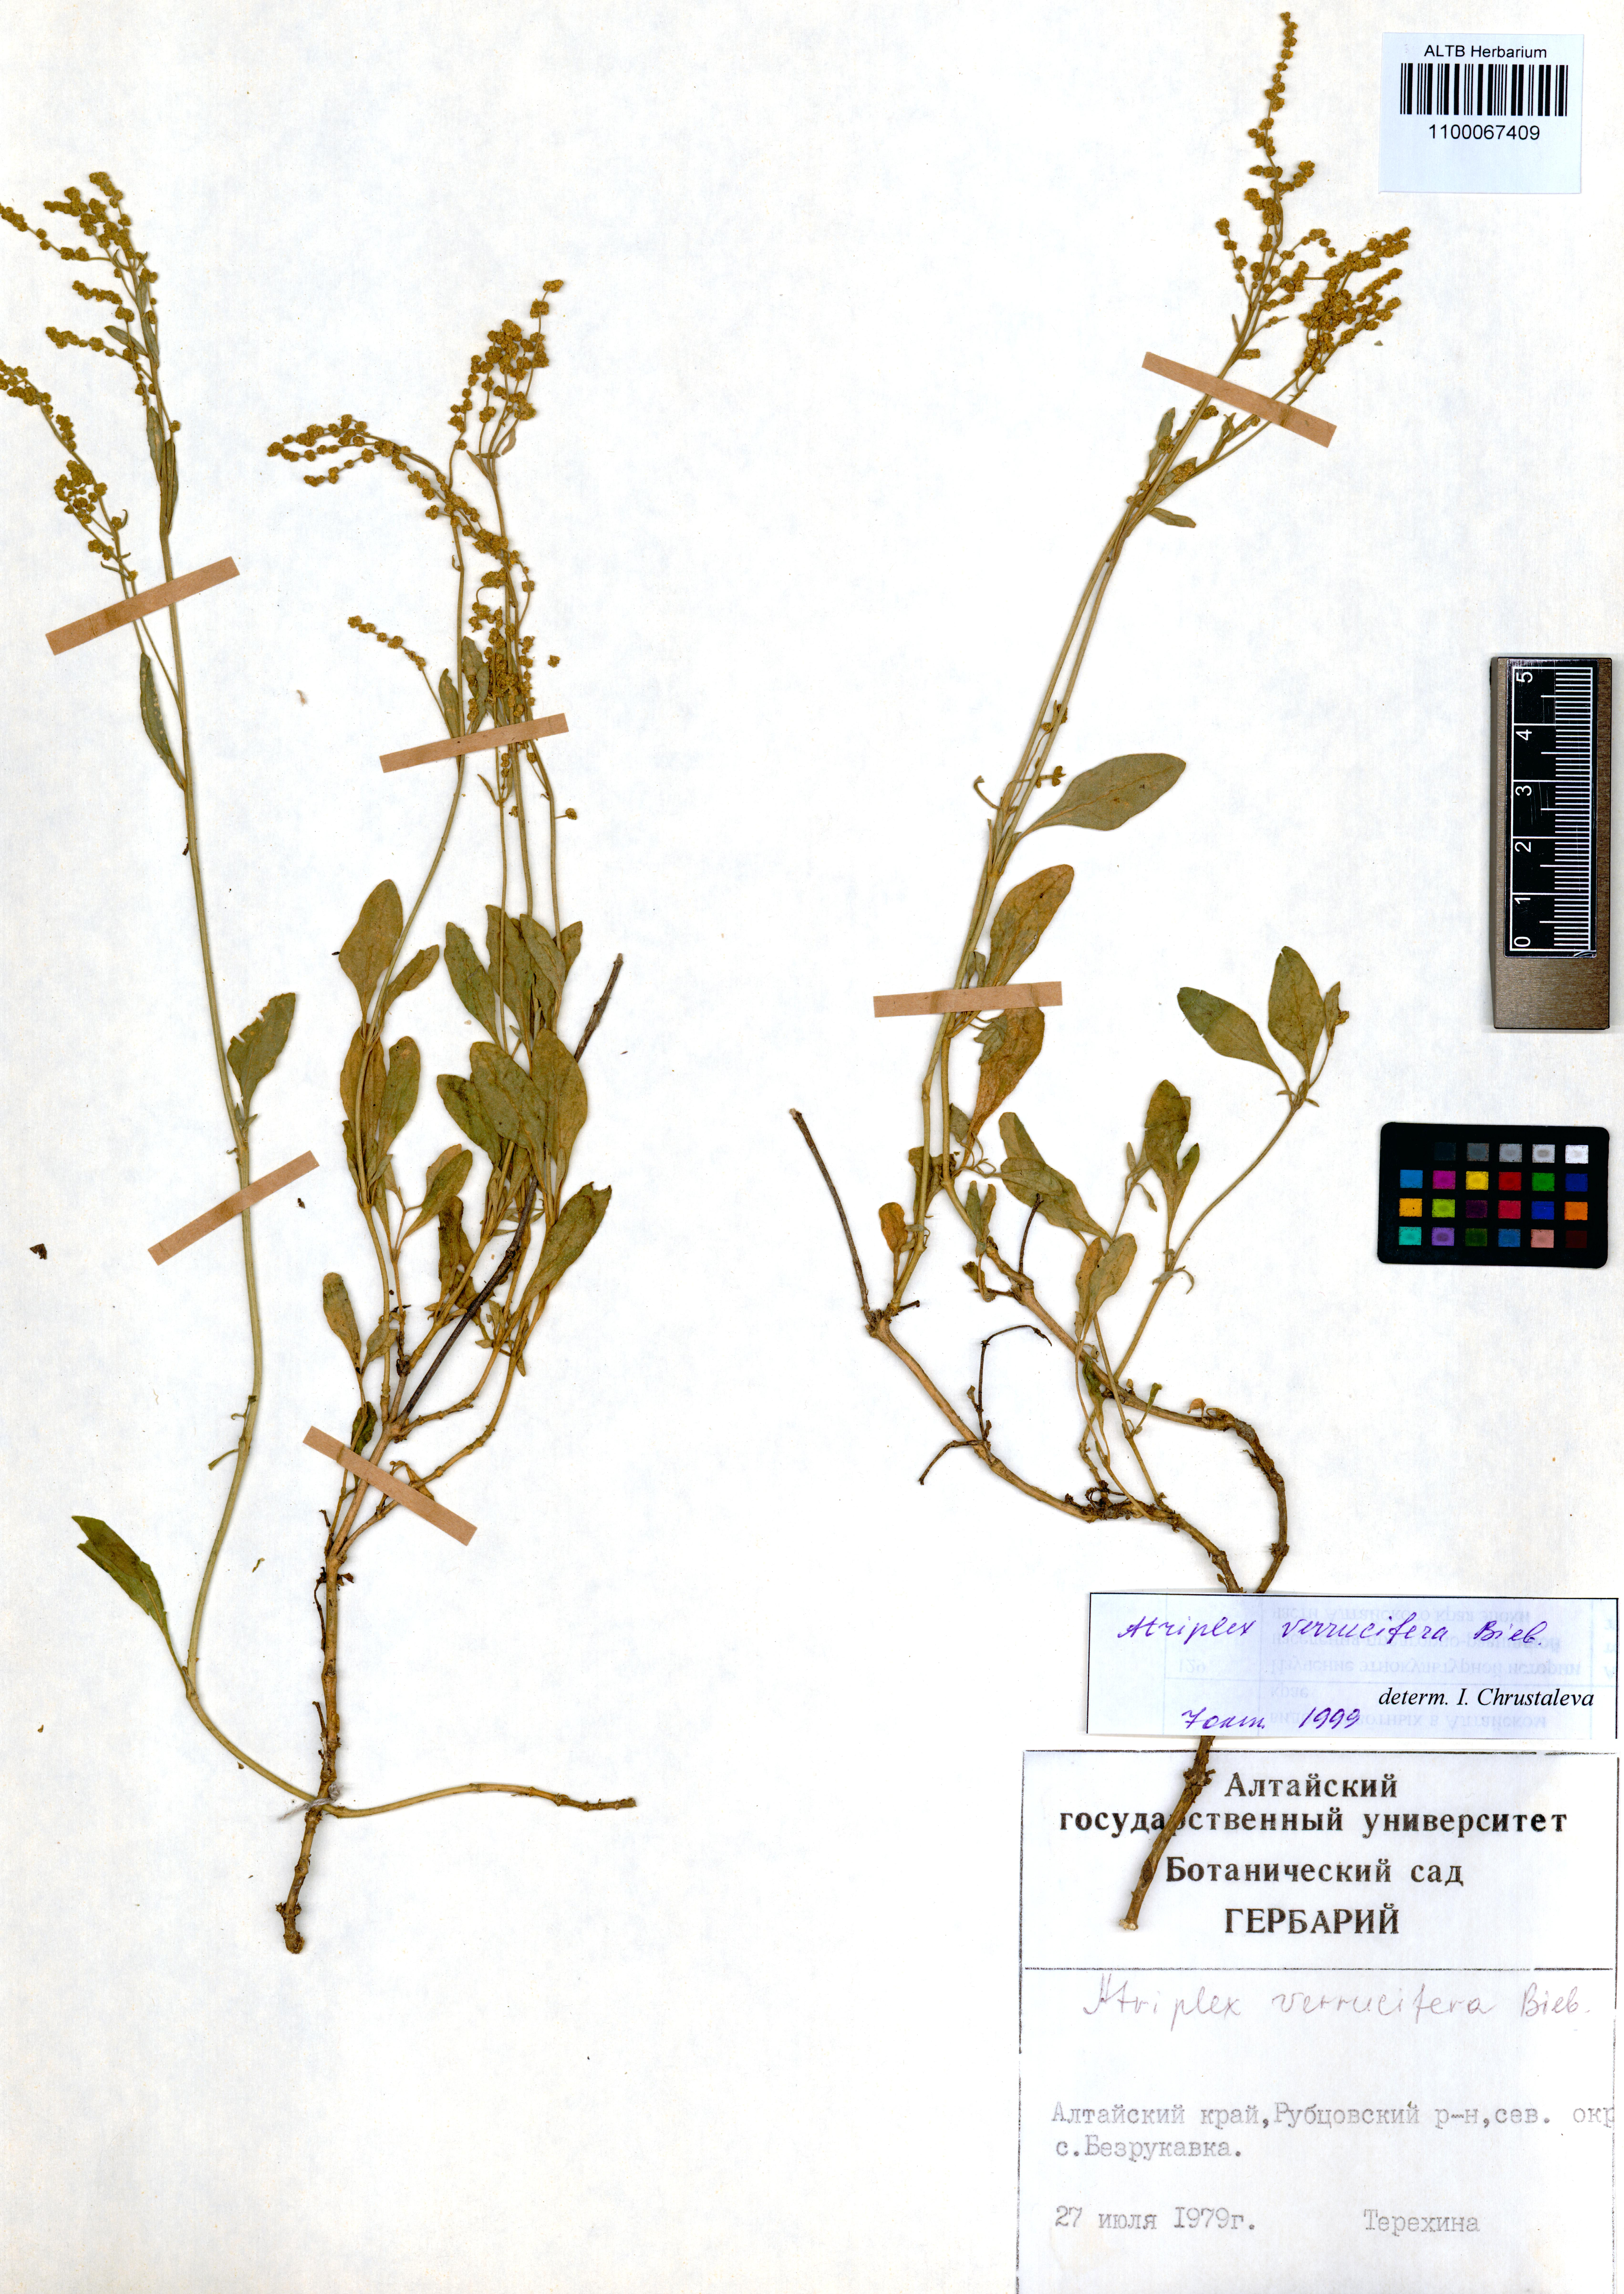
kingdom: Plantae
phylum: Tracheophyta
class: Magnoliopsida
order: Caryophyllales
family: Amaranthaceae
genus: Halimione
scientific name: Halimione verrucifera
